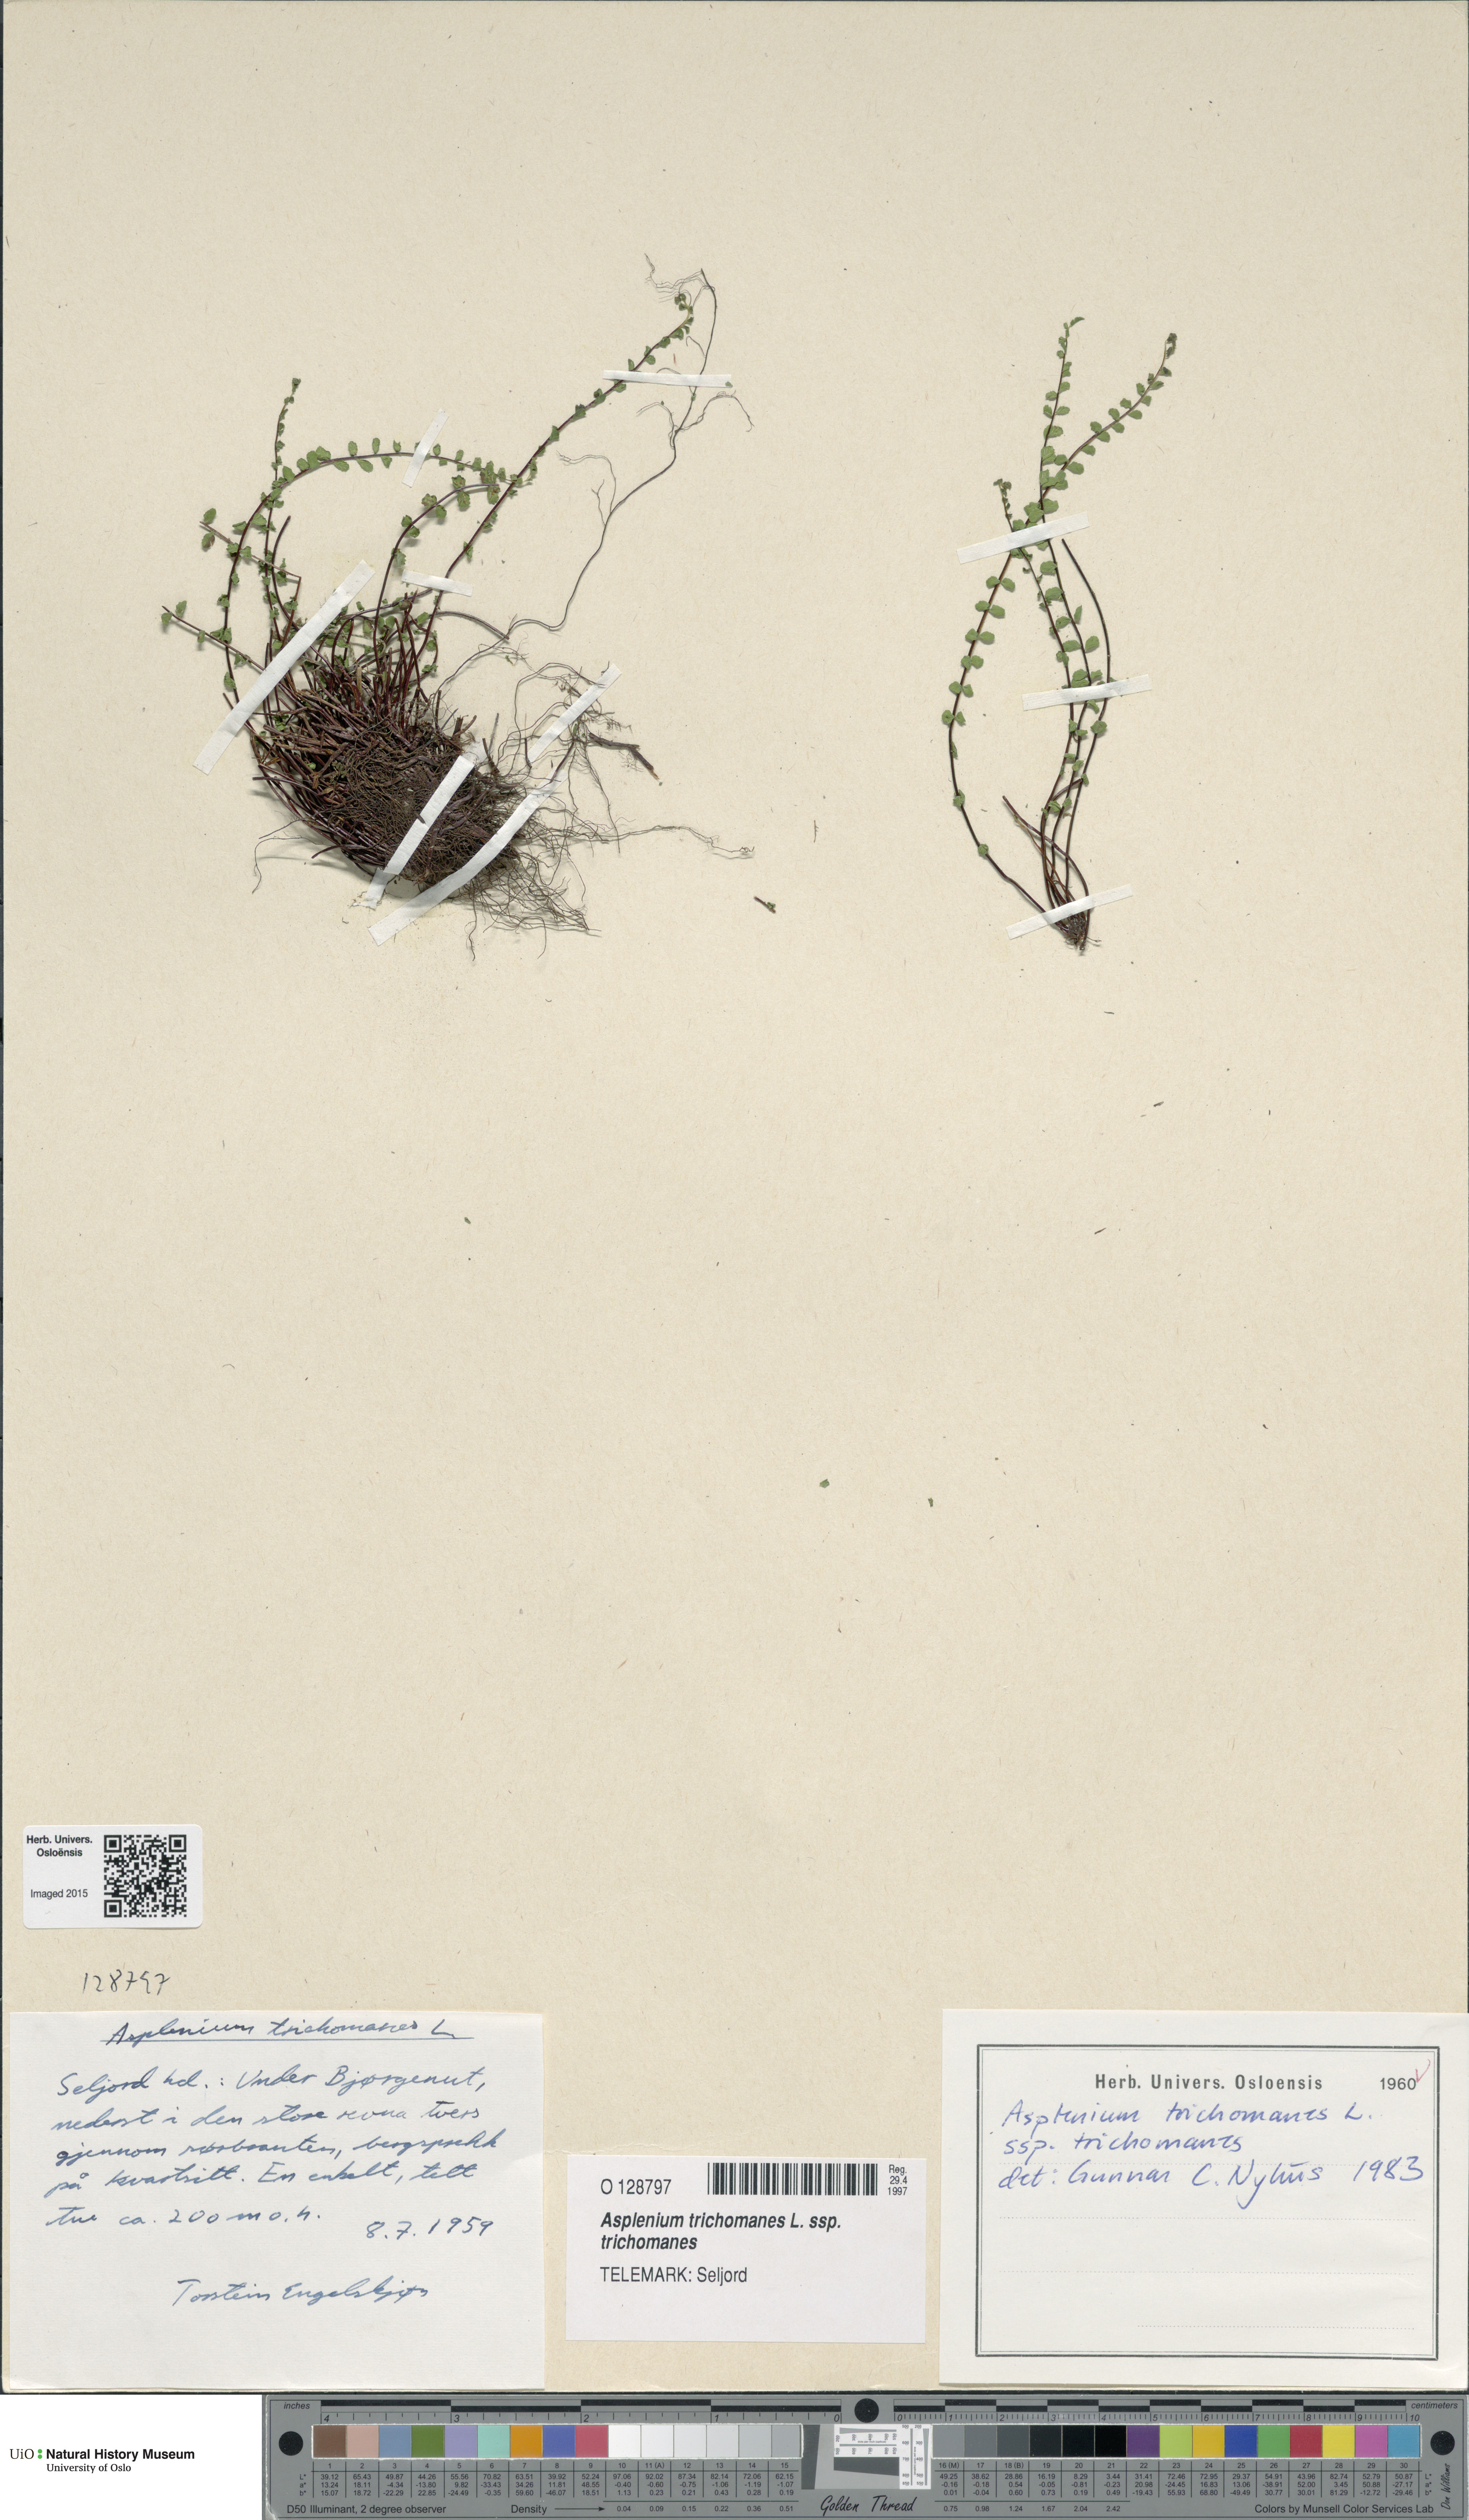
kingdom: Plantae
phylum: Tracheophyta
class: Polypodiopsida
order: Polypodiales
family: Aspleniaceae
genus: Asplenium
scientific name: Asplenium trichomanes
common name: Maidenhair spleenwort
